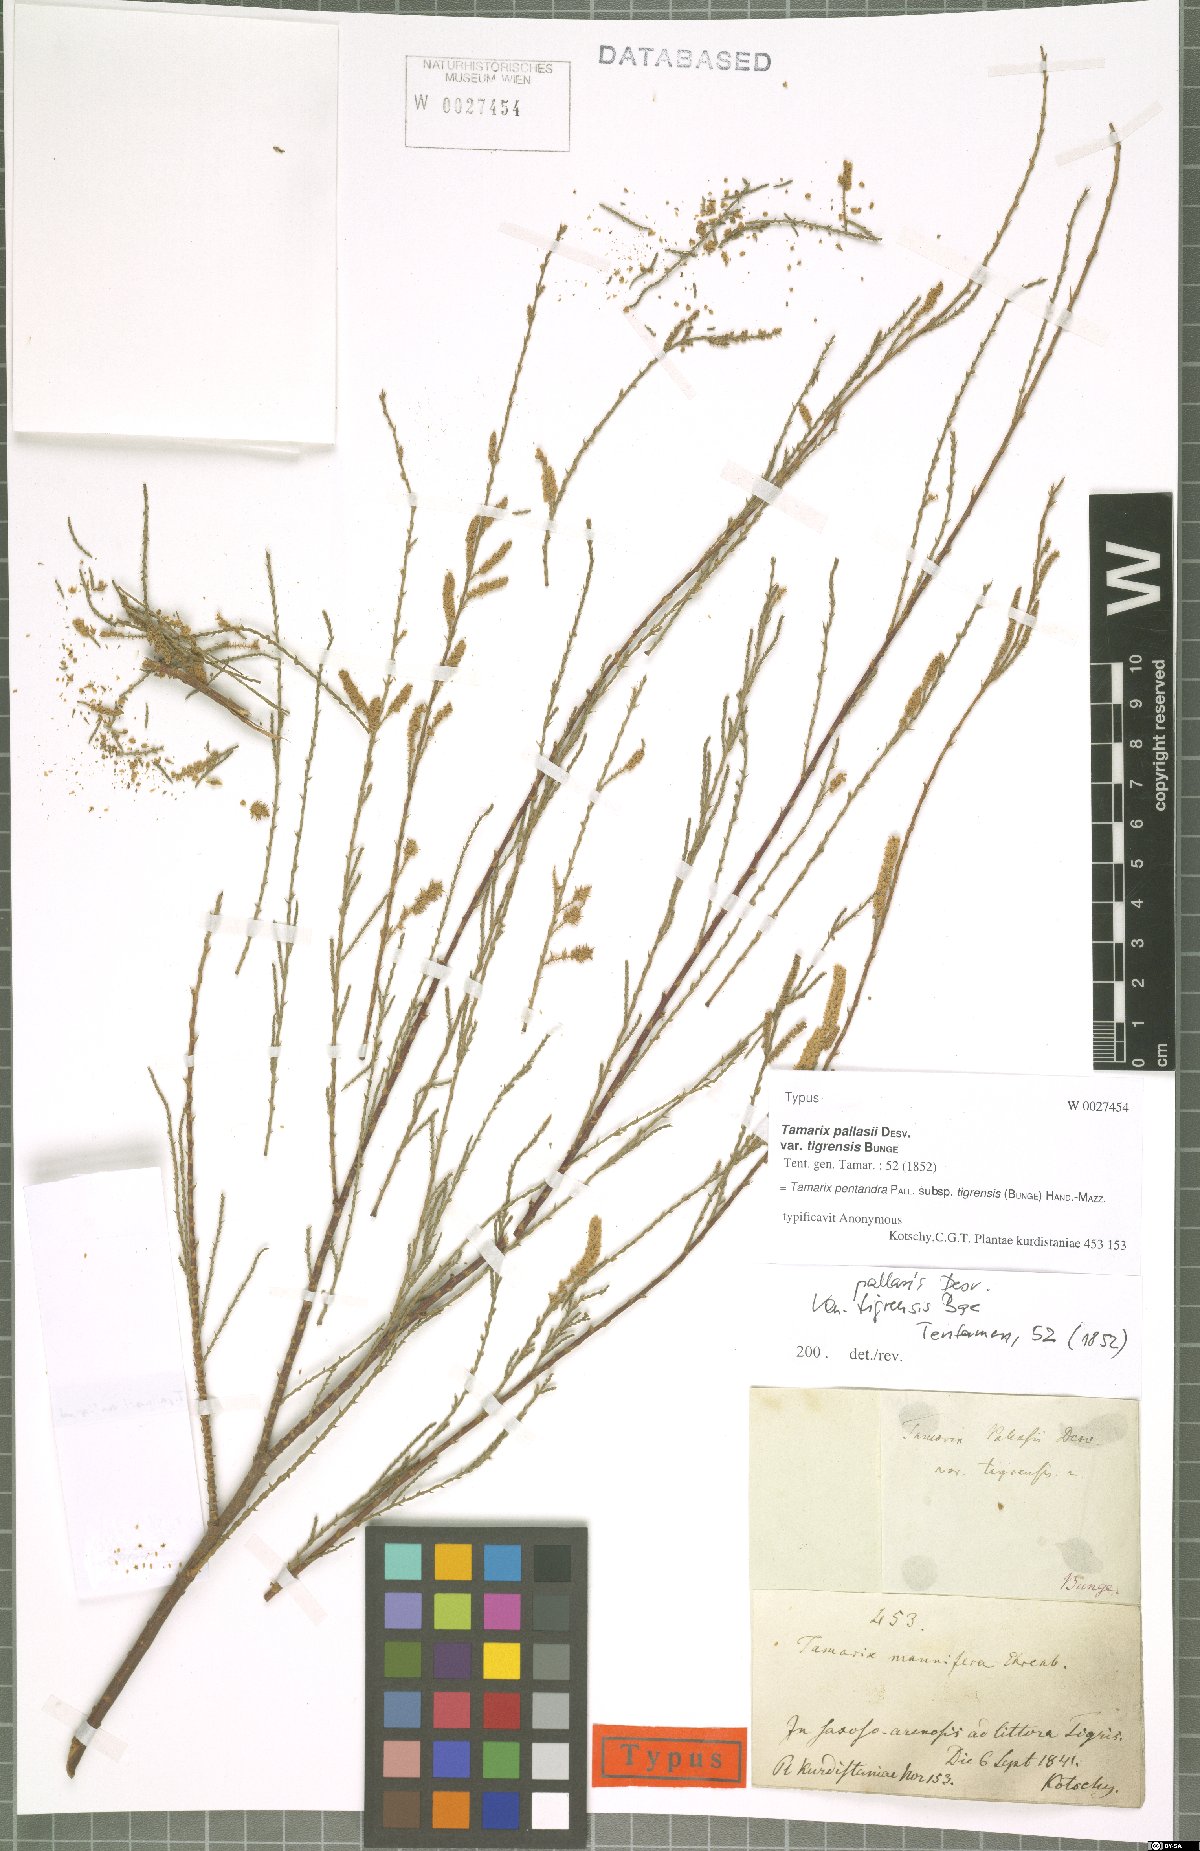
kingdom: Plantae
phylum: Tracheophyta
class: Magnoliopsida
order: Caryophyllales
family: Tamaricaceae
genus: Tamarix
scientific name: Tamarix ramosissima
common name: Pink tamarisk
